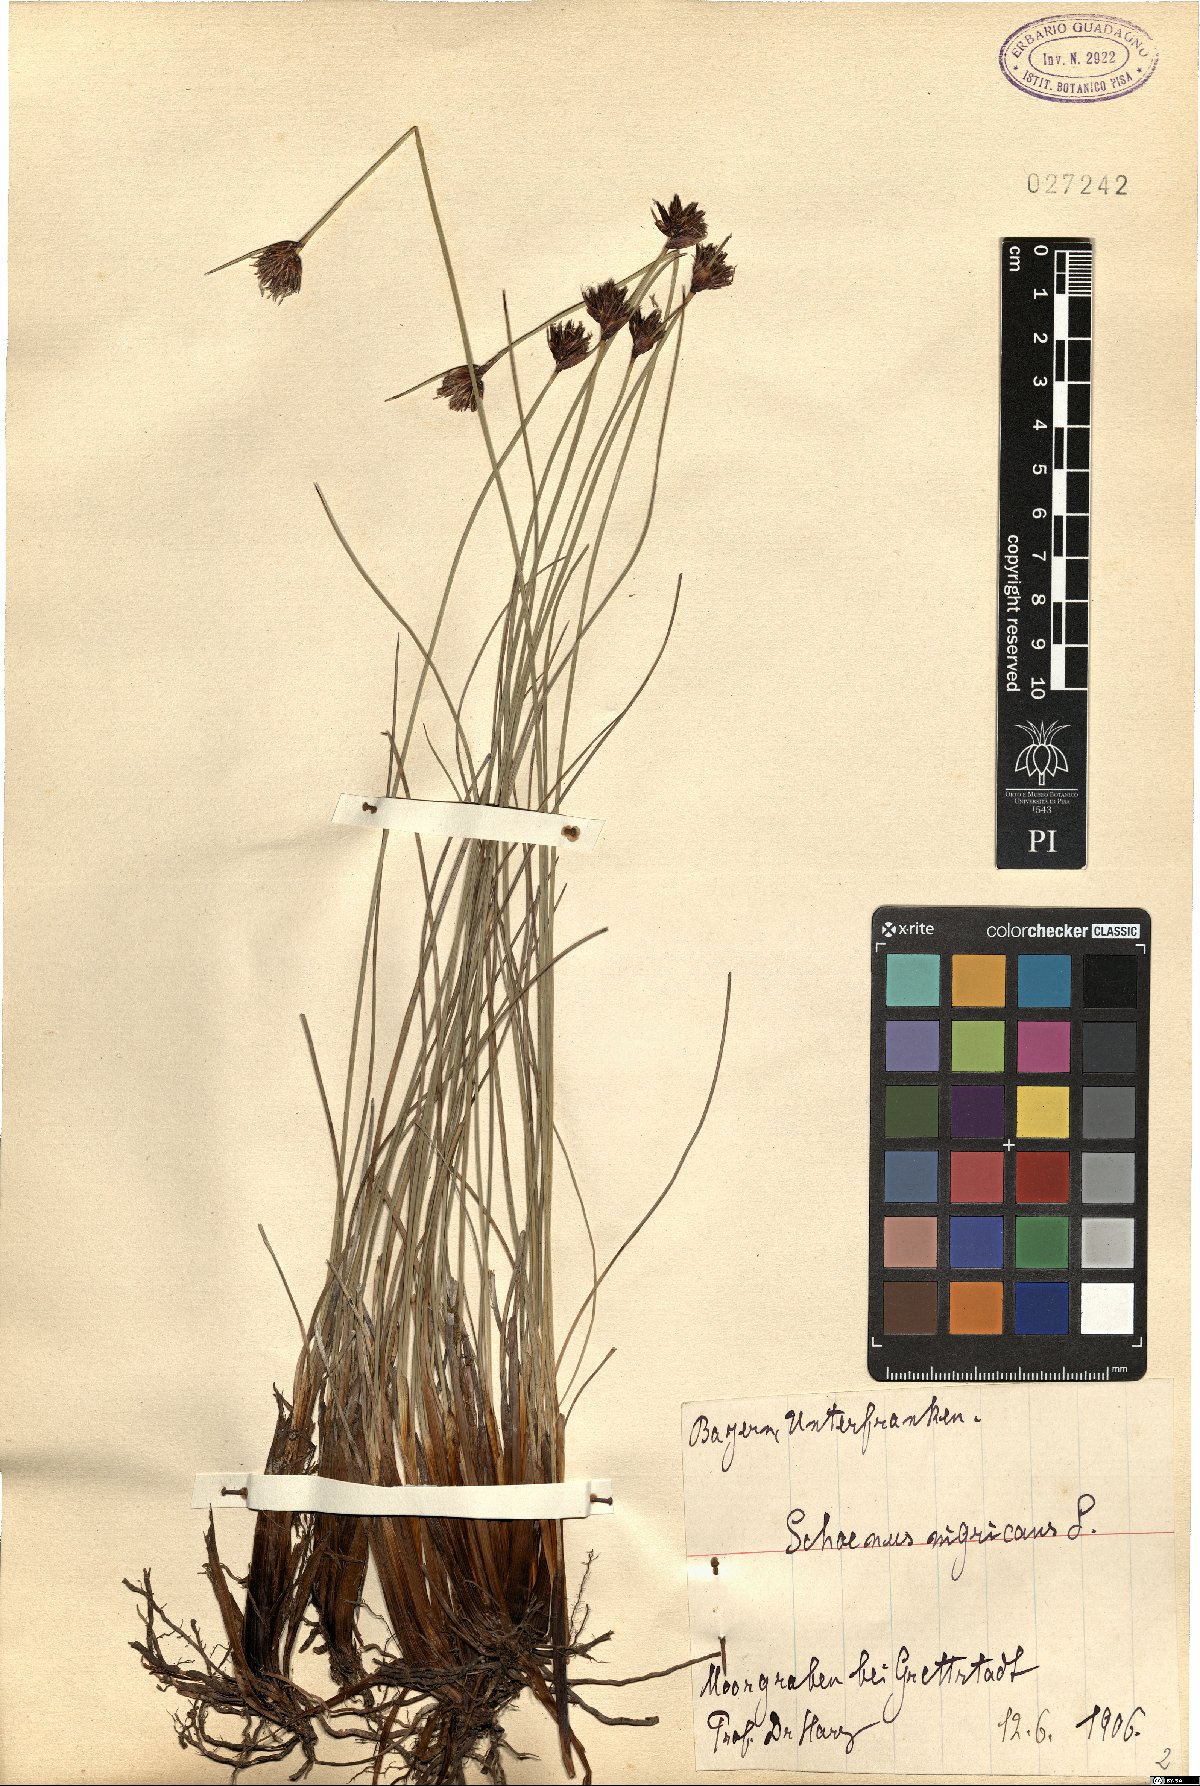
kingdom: Plantae
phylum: Tracheophyta
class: Liliopsida
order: Poales
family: Cyperaceae
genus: Schoenus
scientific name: Schoenus nigricans
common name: Black bog-rush
